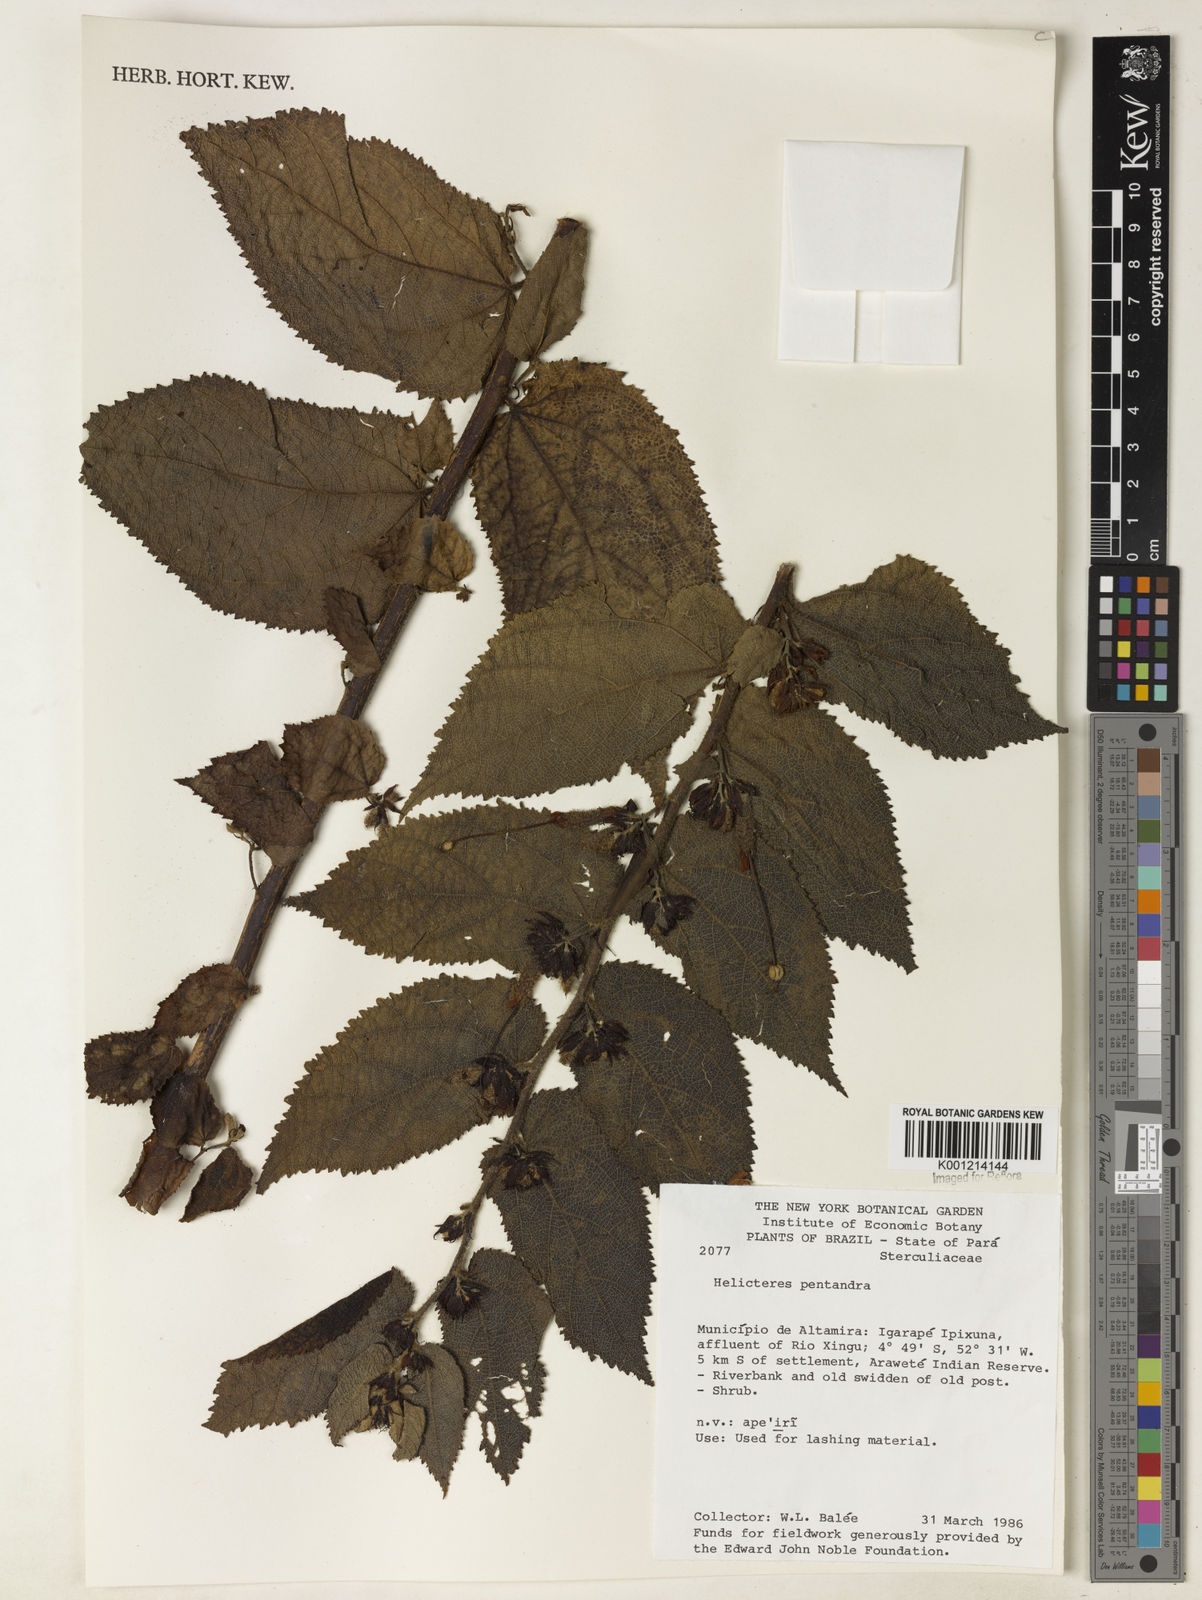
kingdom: Plantae
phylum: Tracheophyta
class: Magnoliopsida
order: Malvales
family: Malvaceae
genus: Helicteres
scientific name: Helicteres pentandra
